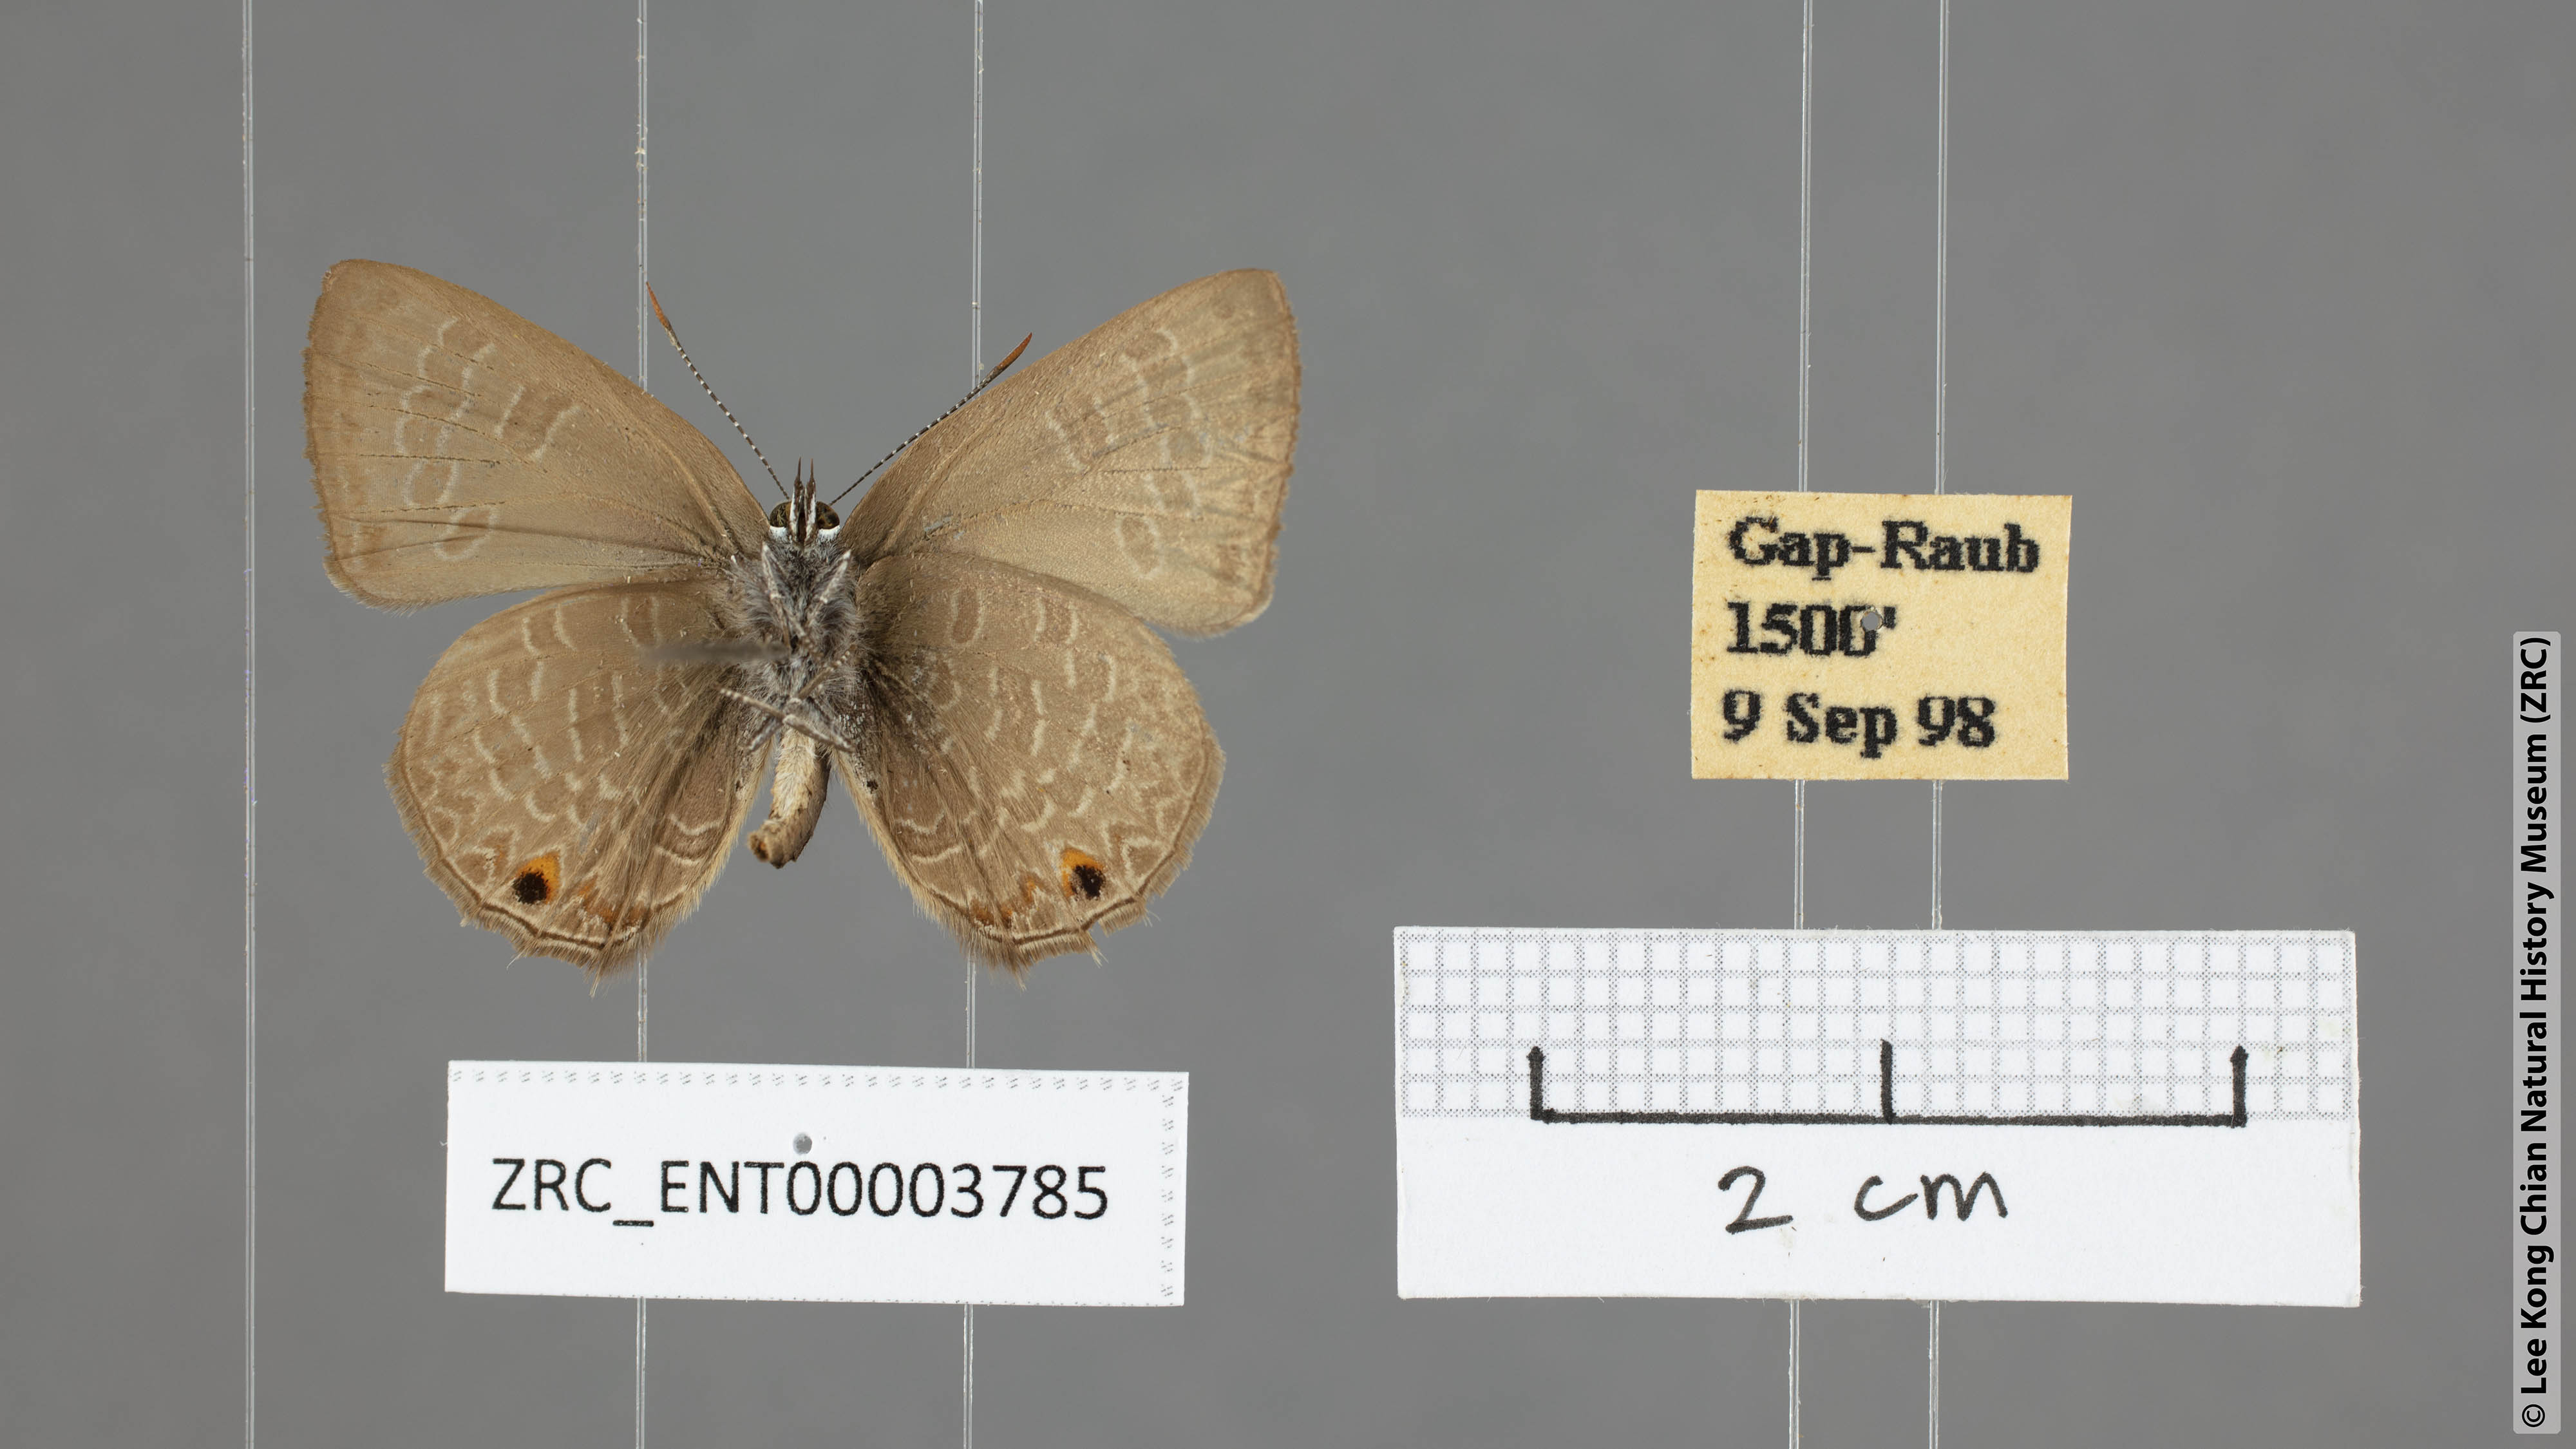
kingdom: Animalia
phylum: Arthropoda
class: Insecta
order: Lepidoptera
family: Lycaenidae
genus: Anthene
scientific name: Anthene emolus
